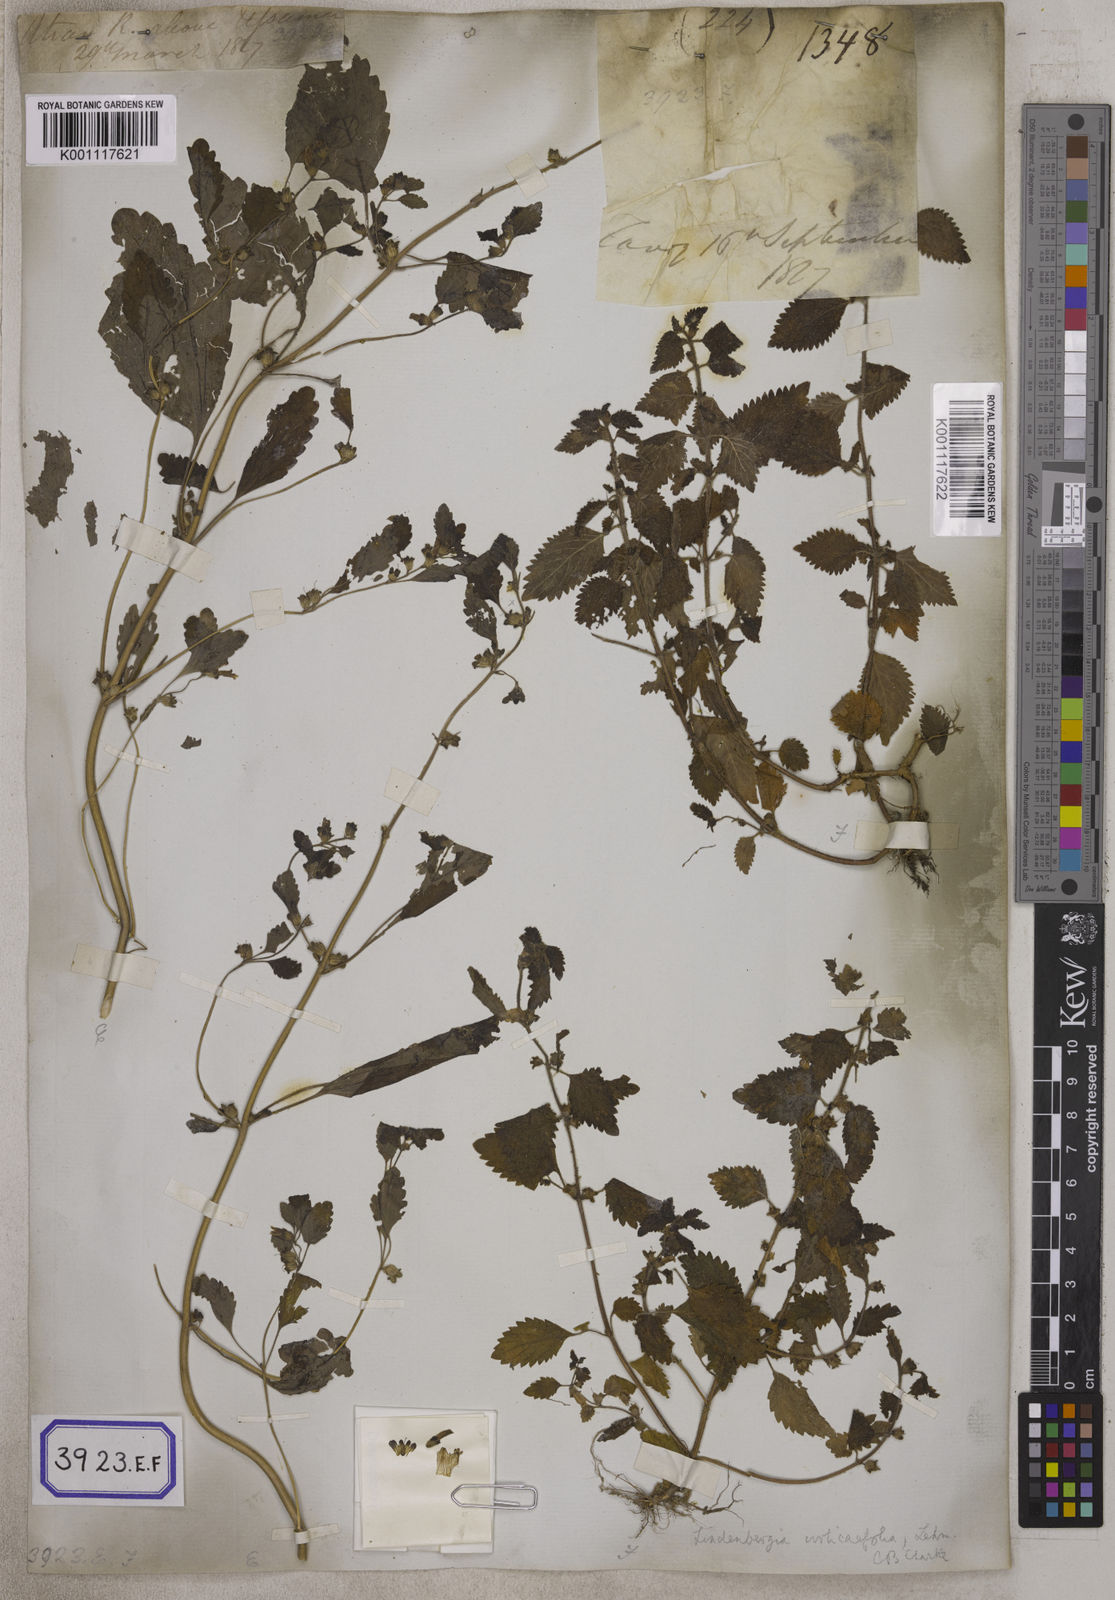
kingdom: Plantae
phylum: Tracheophyta
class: Magnoliopsida
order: Lamiales
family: Orobanchaceae
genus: Lindenbergia
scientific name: Lindenbergia muraria
